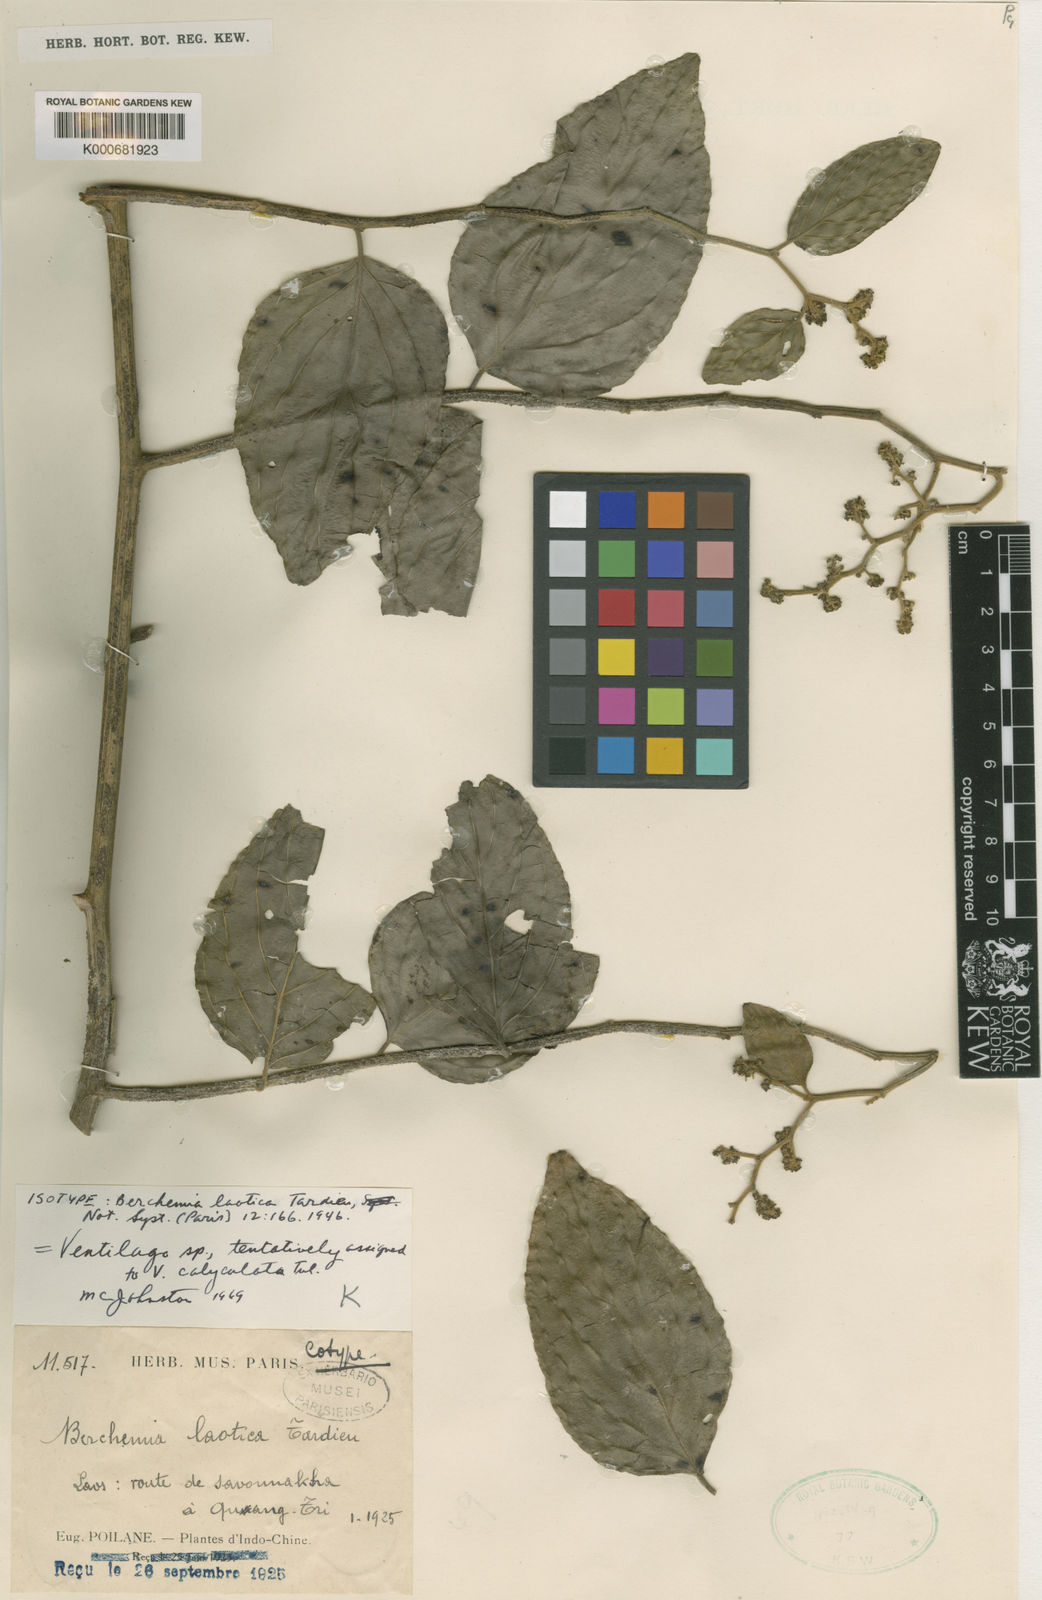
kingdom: Plantae
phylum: Tracheophyta
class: Magnoliopsida
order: Rosales
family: Rhamnaceae
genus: Ventilago
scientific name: Ventilago denticulata
